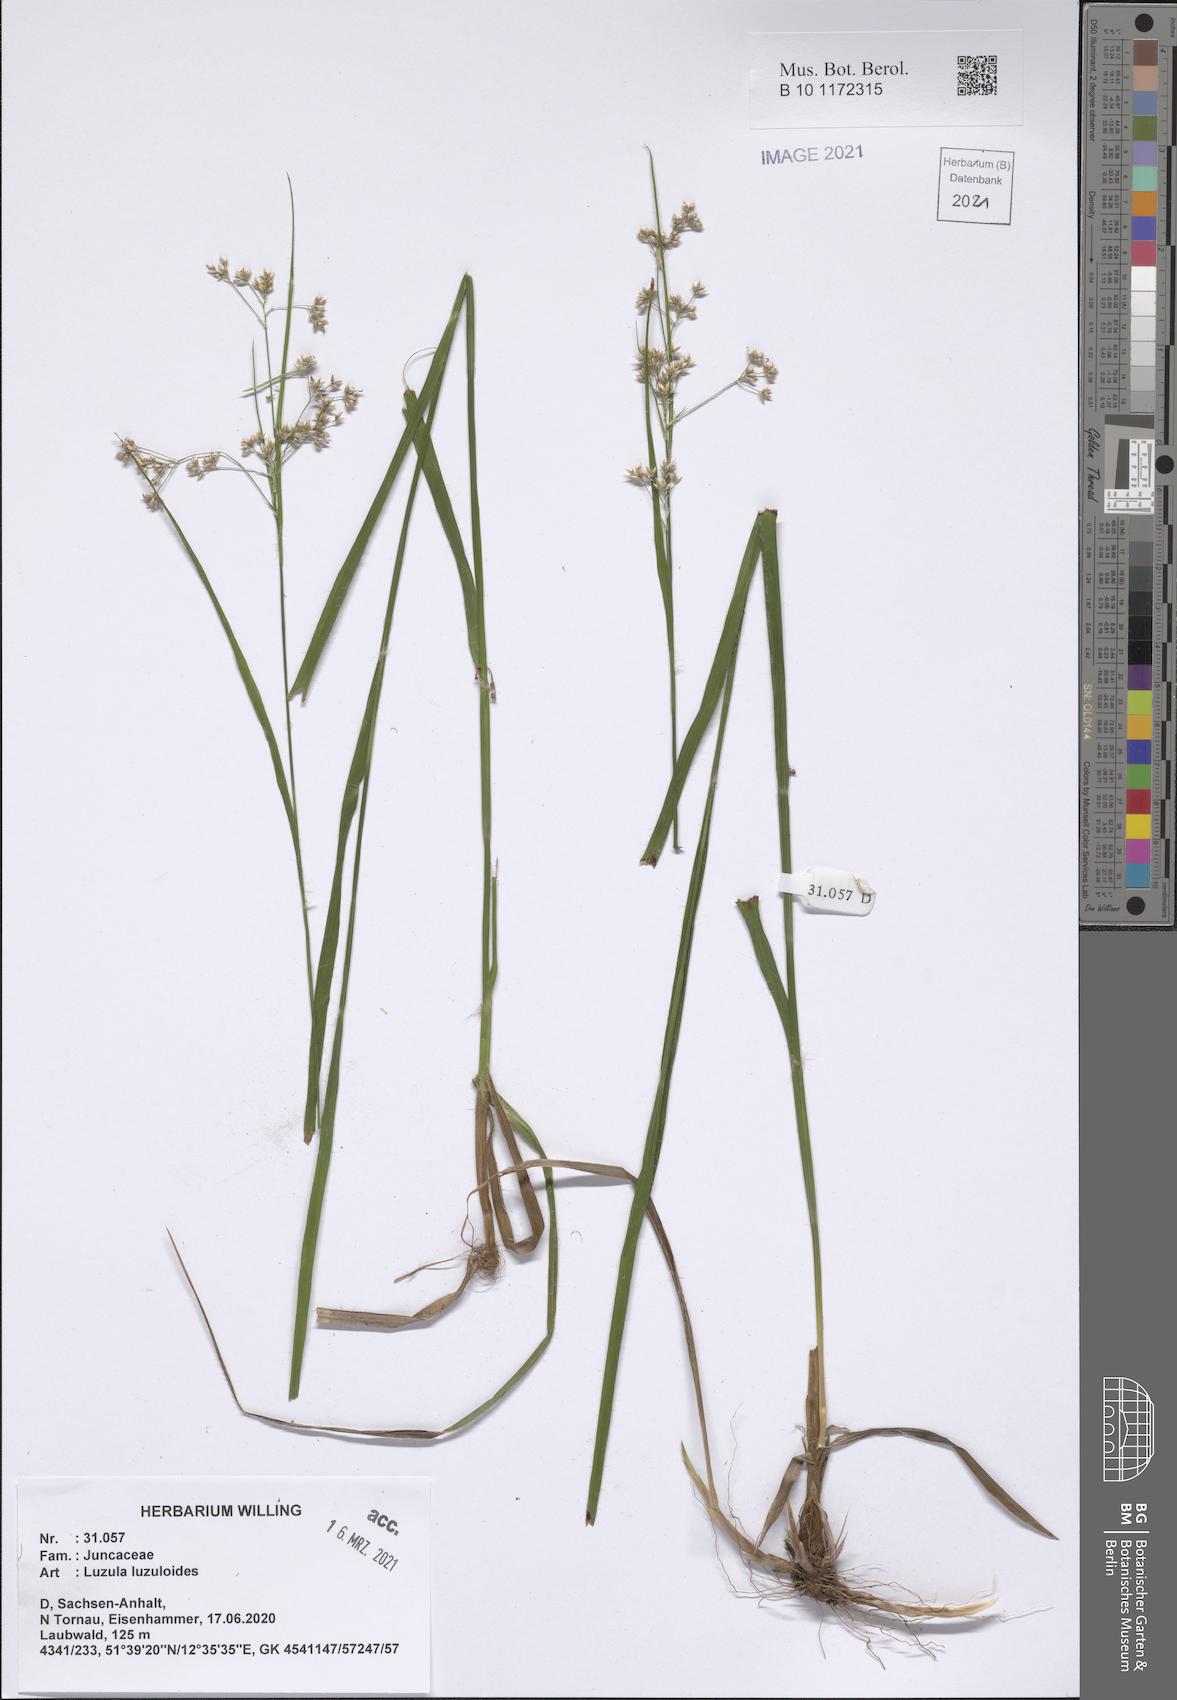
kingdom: Plantae
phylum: Tracheophyta
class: Liliopsida
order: Poales
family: Juncaceae
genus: Luzula
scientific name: Luzula luzuloides
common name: White wood-rush
